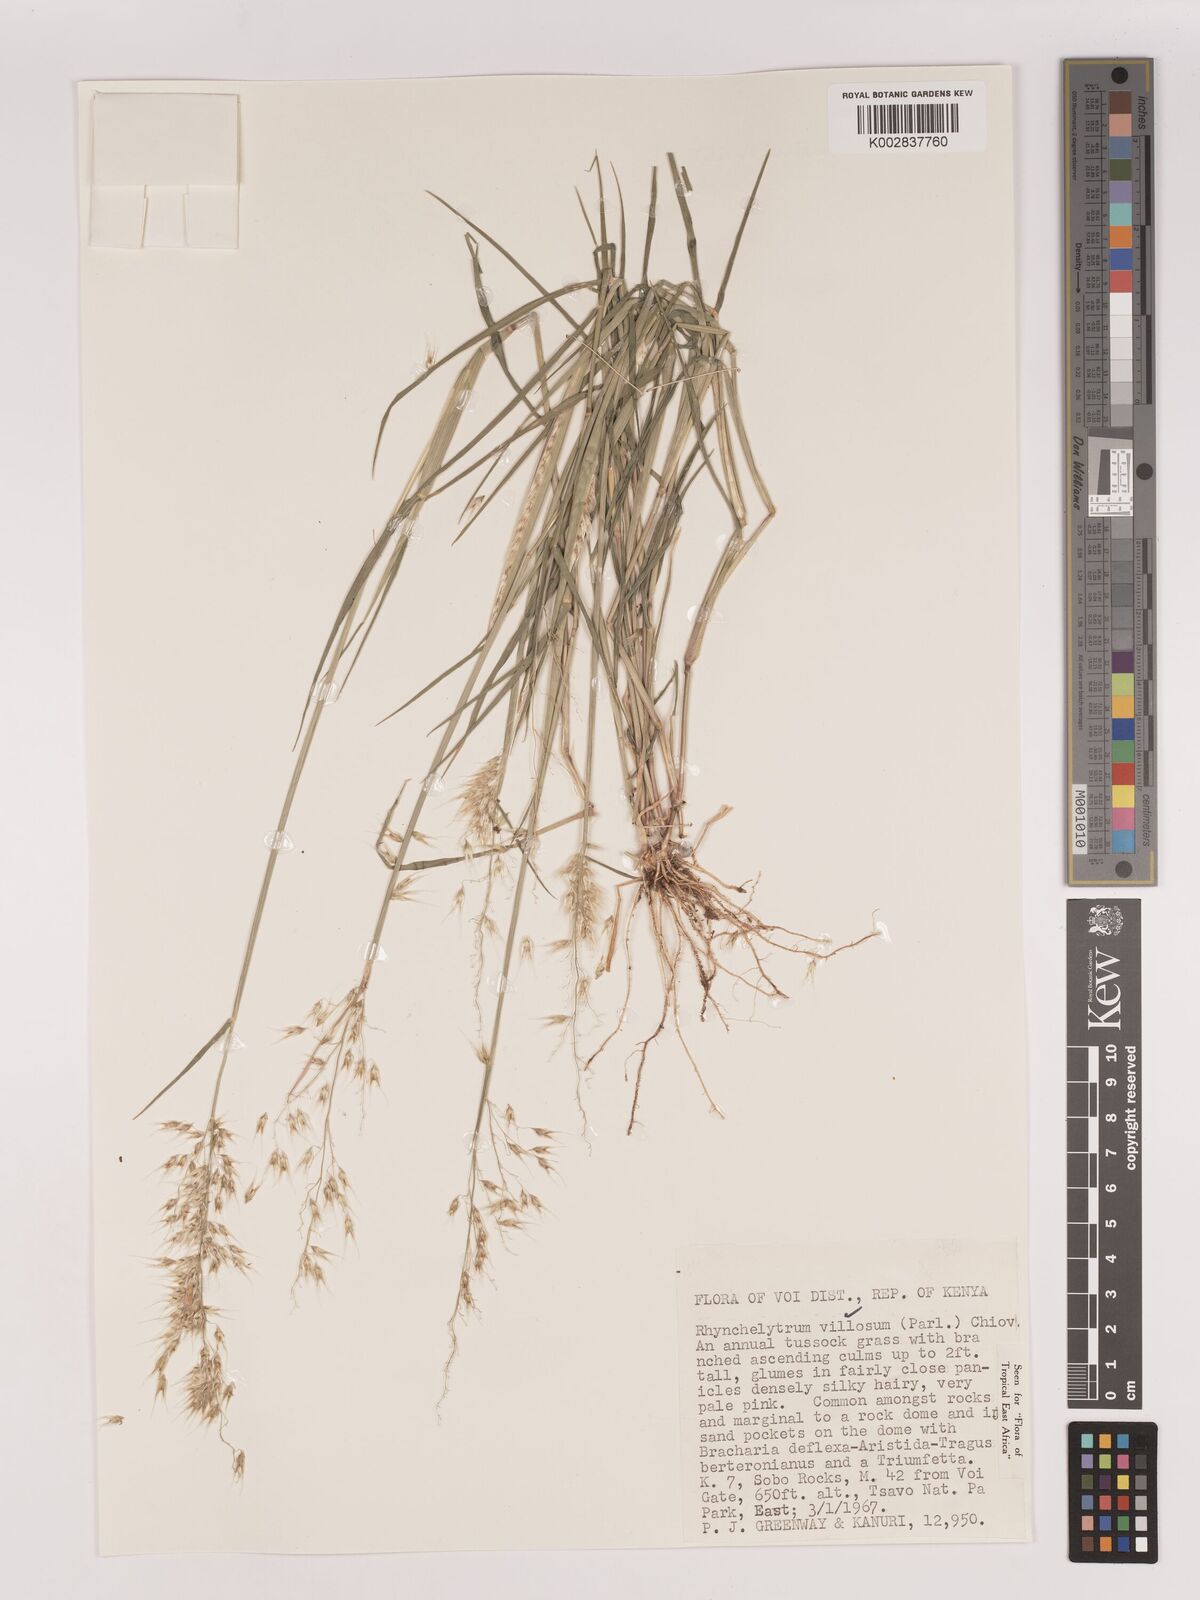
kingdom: Plantae
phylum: Tracheophyta
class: Liliopsida
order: Poales
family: Poaceae
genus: Melinis
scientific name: Melinis repens
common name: Rose natal grass
